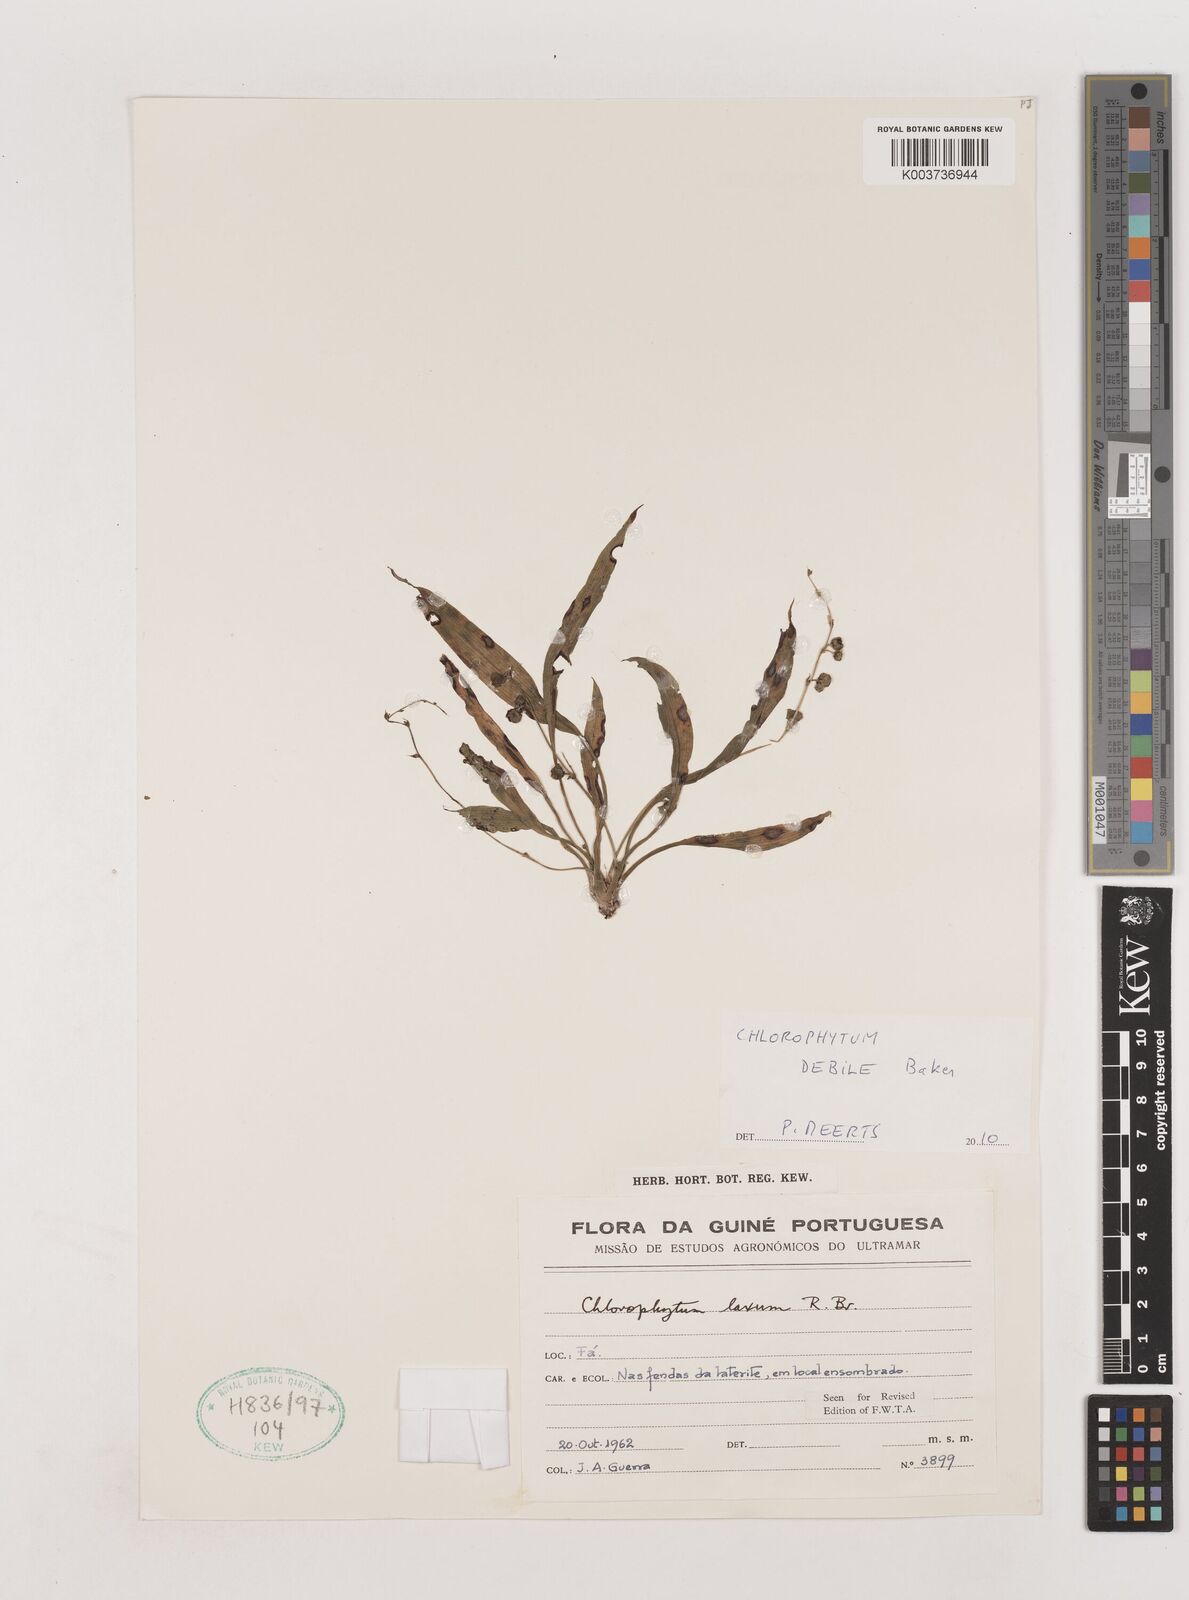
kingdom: Plantae
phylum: Tracheophyta
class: Liliopsida
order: Asparagales
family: Asparagaceae
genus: Chlorophytum
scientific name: Chlorophytum laxum
